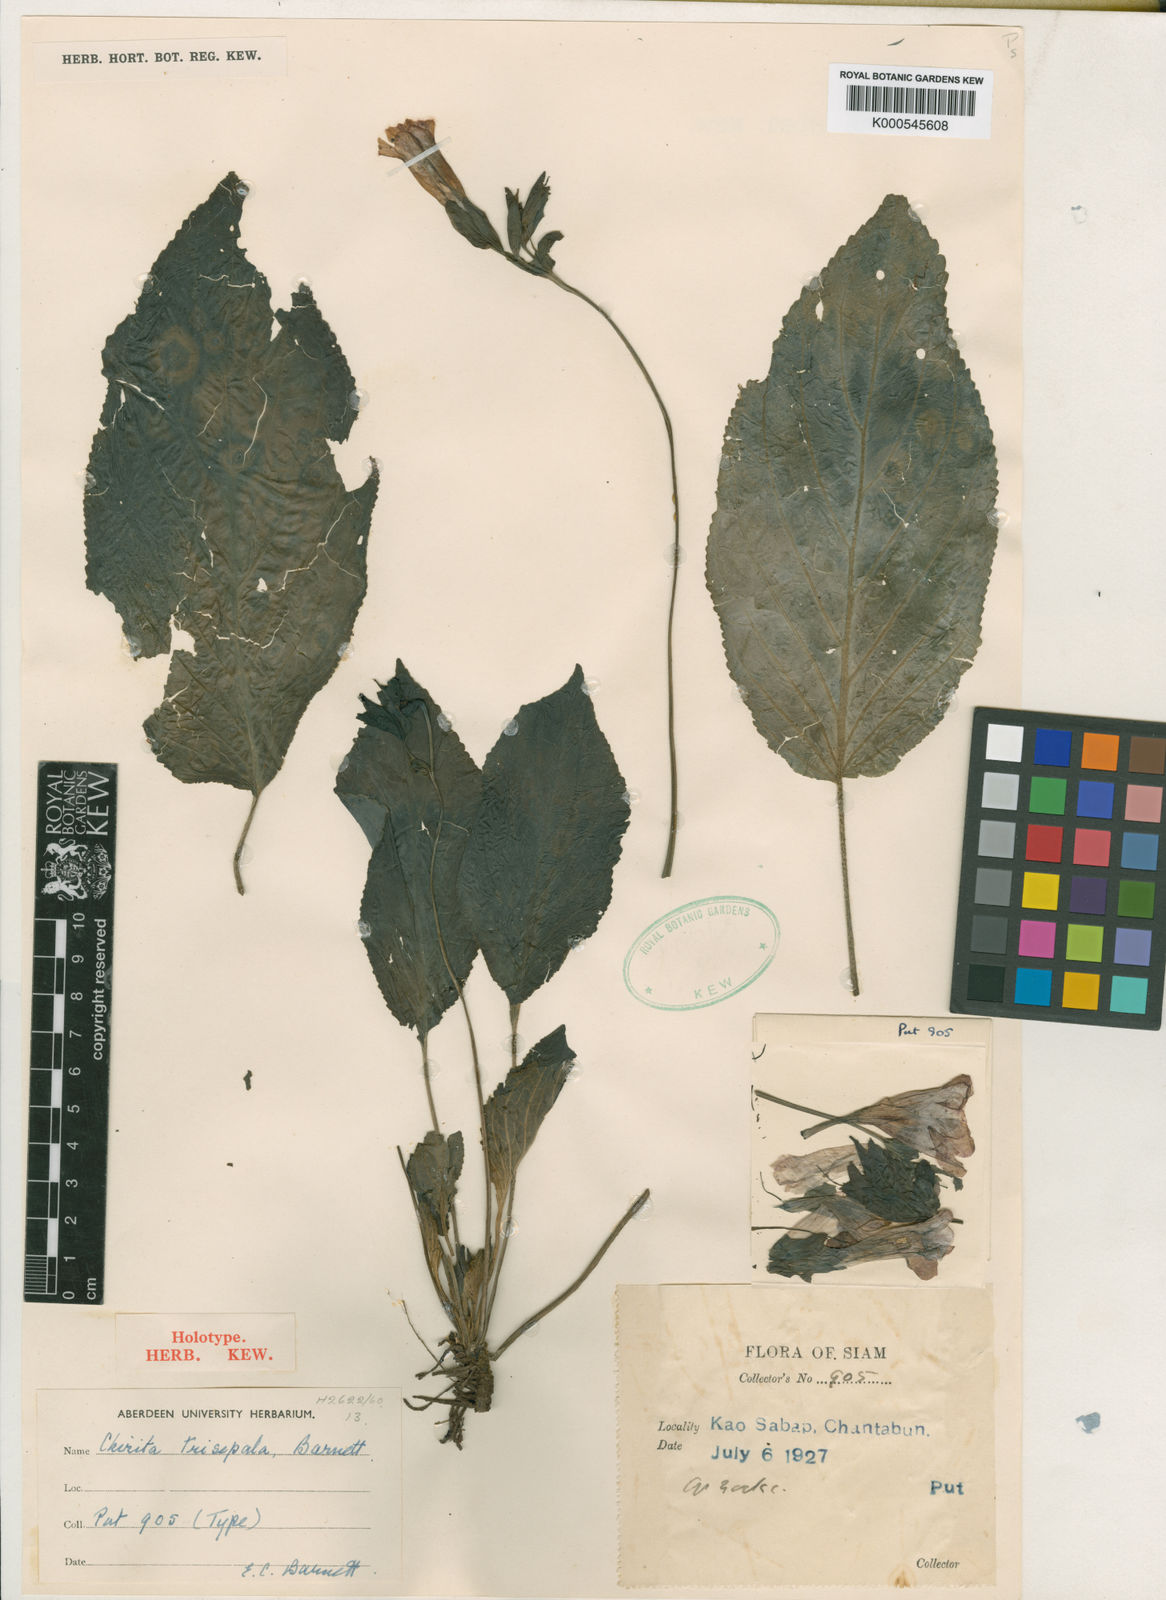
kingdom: Plantae
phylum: Tracheophyta
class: Magnoliopsida
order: Lamiales
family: Gesneriaceae
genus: Damrongia
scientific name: Damrongia trisepala
